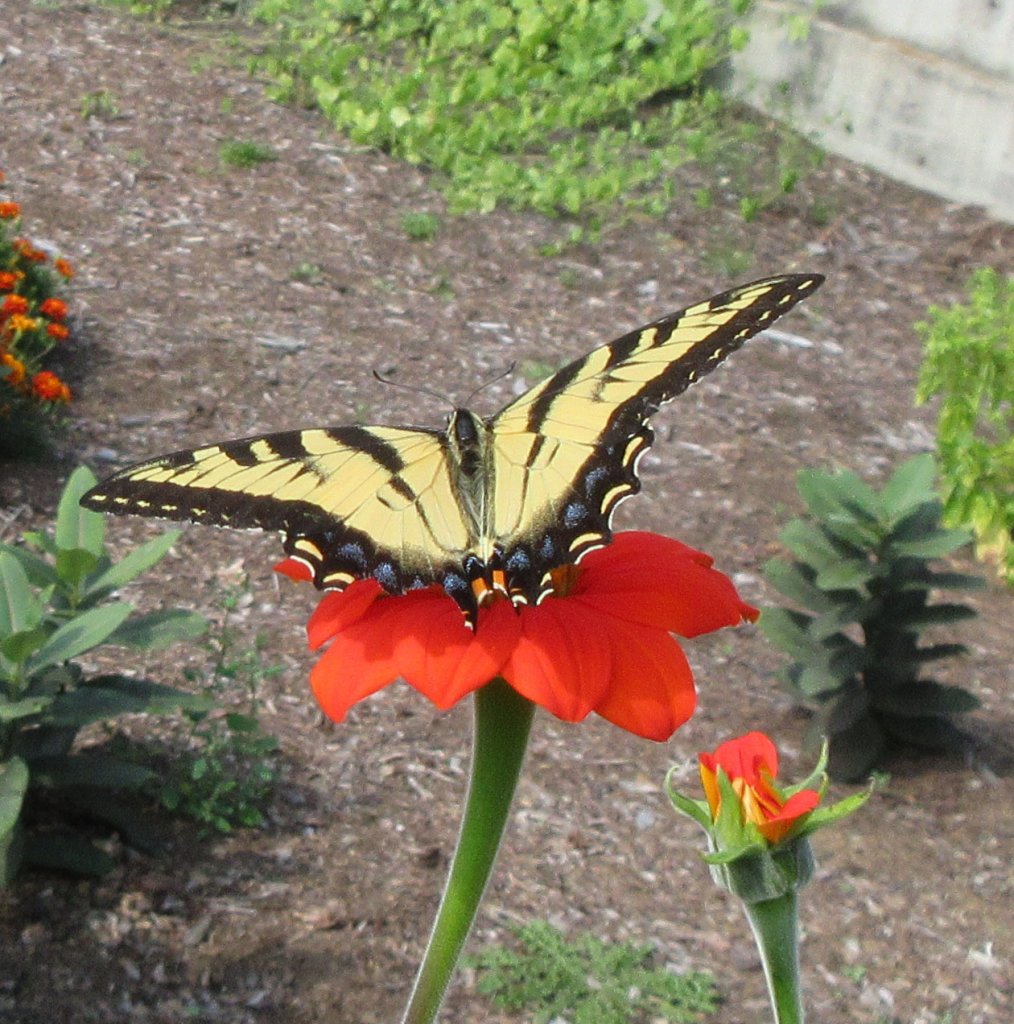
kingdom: Animalia
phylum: Arthropoda
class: Insecta
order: Lepidoptera
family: Papilionidae
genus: Pterourus
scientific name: Pterourus glaucus
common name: Eastern Tiger Swallowtail
